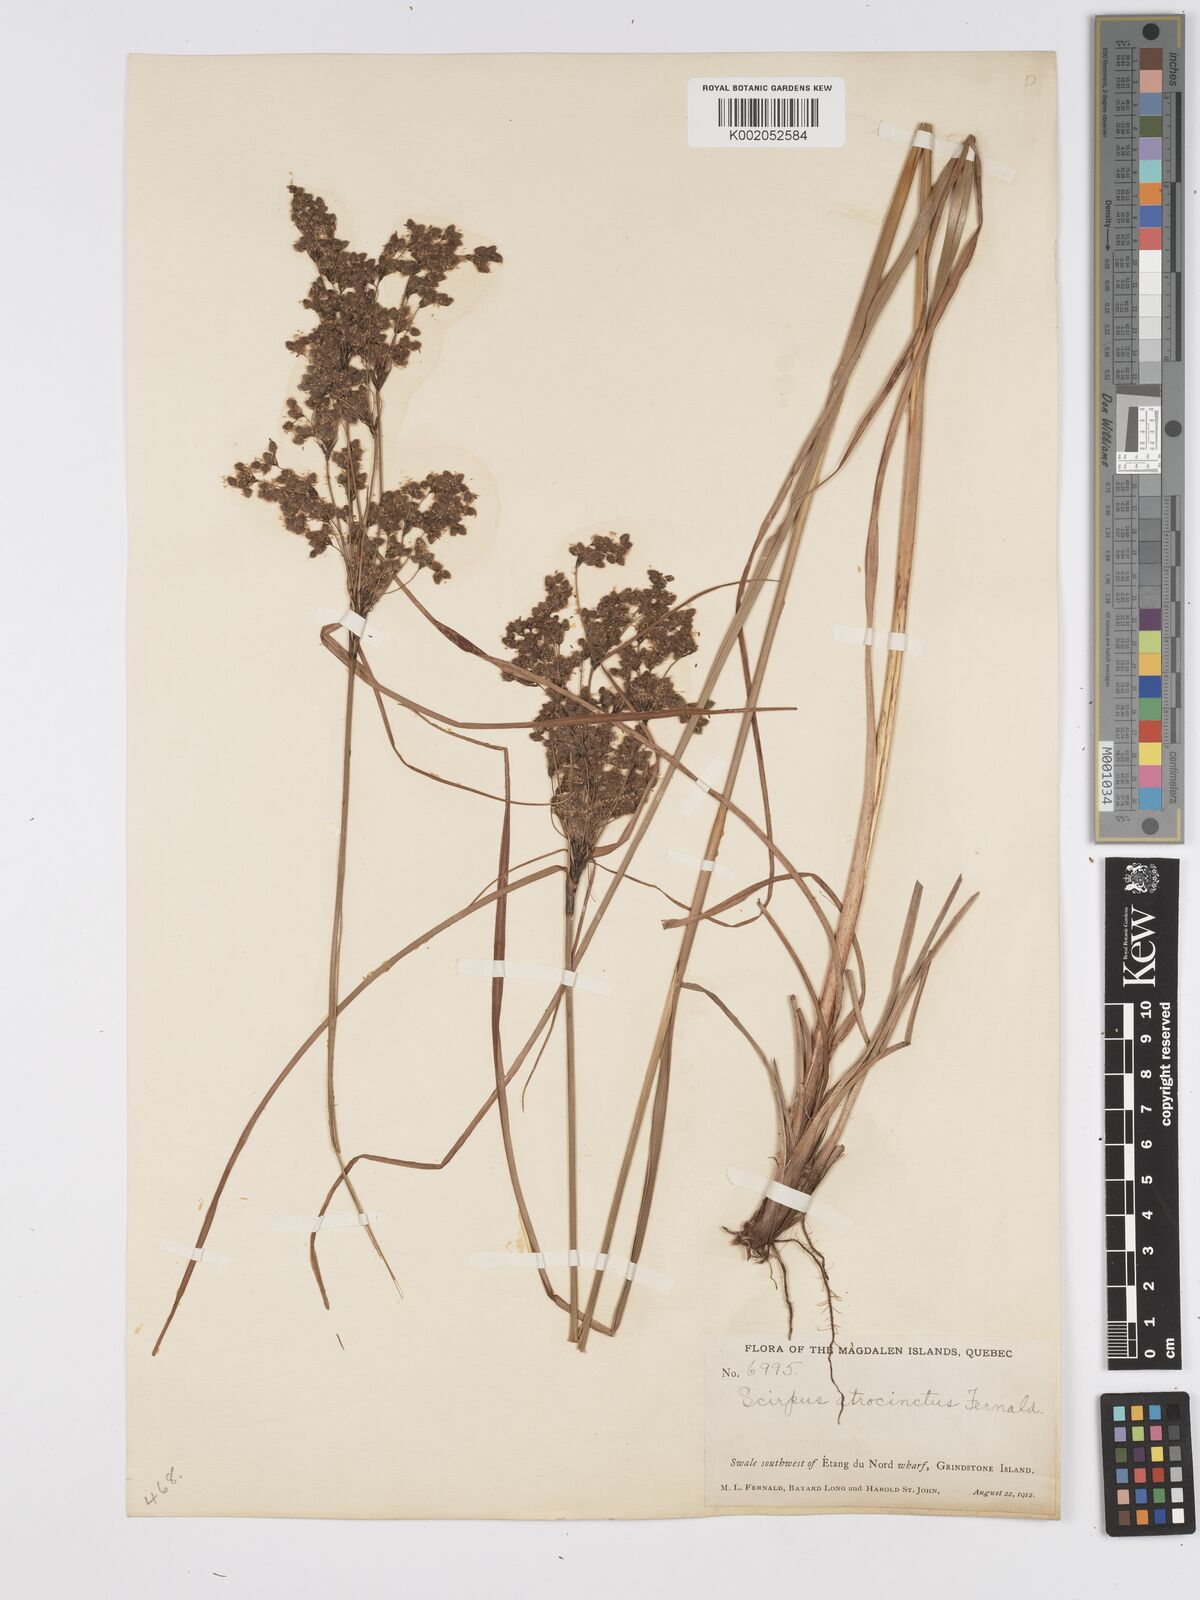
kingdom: Plantae
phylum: Tracheophyta
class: Liliopsida
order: Poales
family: Cyperaceae
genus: Scirpus
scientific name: Scirpus atrocinctus
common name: Black-girdled bulrush
